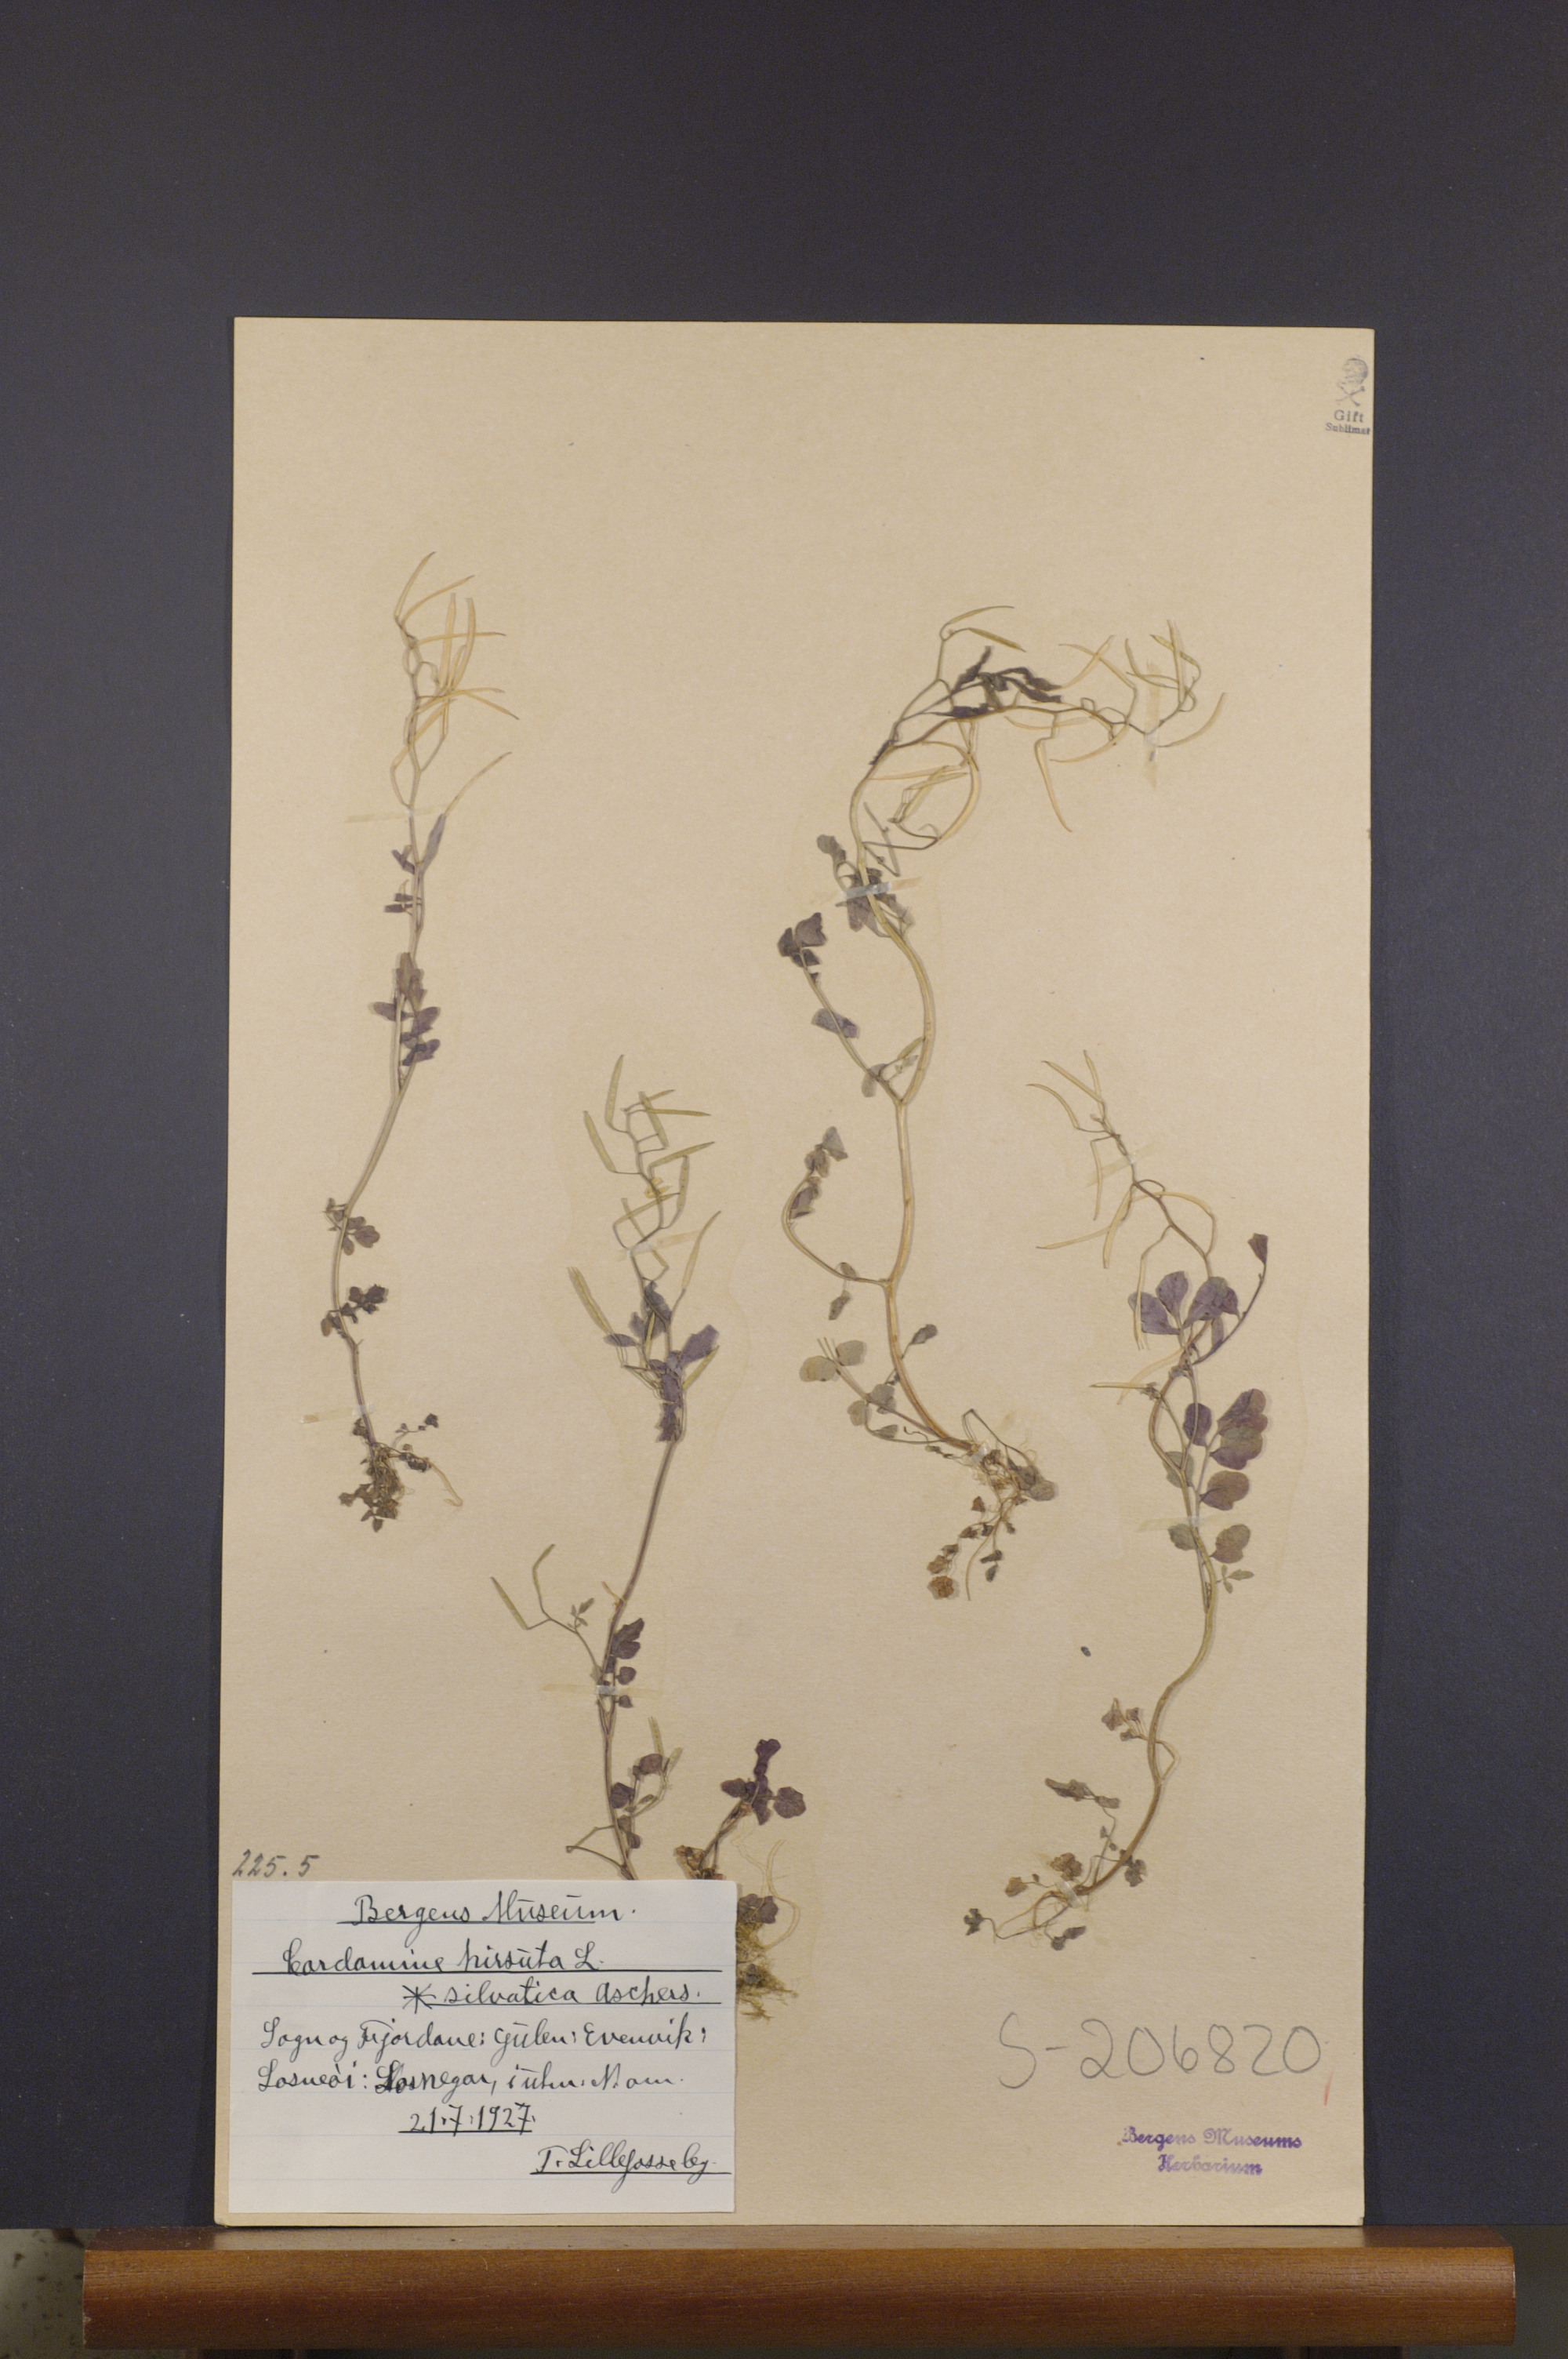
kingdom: Plantae
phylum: Tracheophyta
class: Magnoliopsida
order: Brassicales
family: Brassicaceae
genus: Cardamine
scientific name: Cardamine flexuosa
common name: Woodland bittercress
